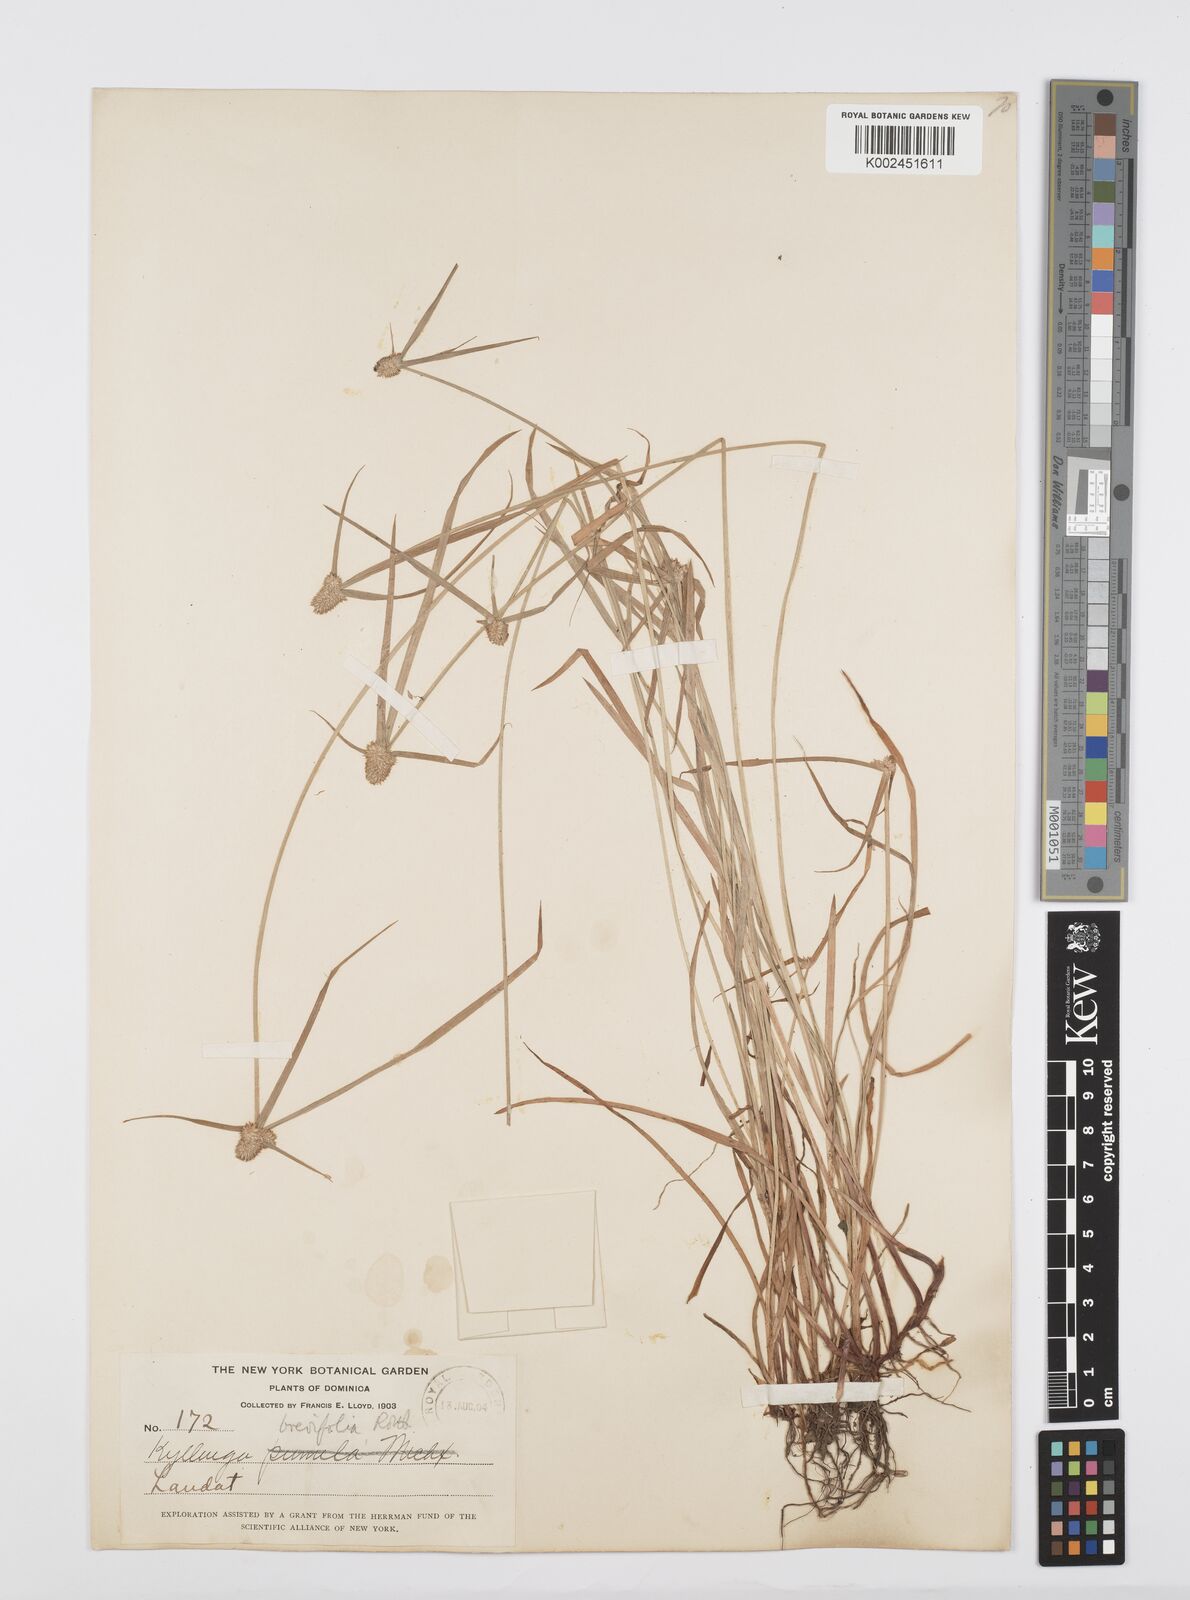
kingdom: Plantae
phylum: Tracheophyta
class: Liliopsida
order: Poales
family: Cyperaceae
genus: Cyperus
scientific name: Cyperus brevifolius
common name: Globe kyllinga
